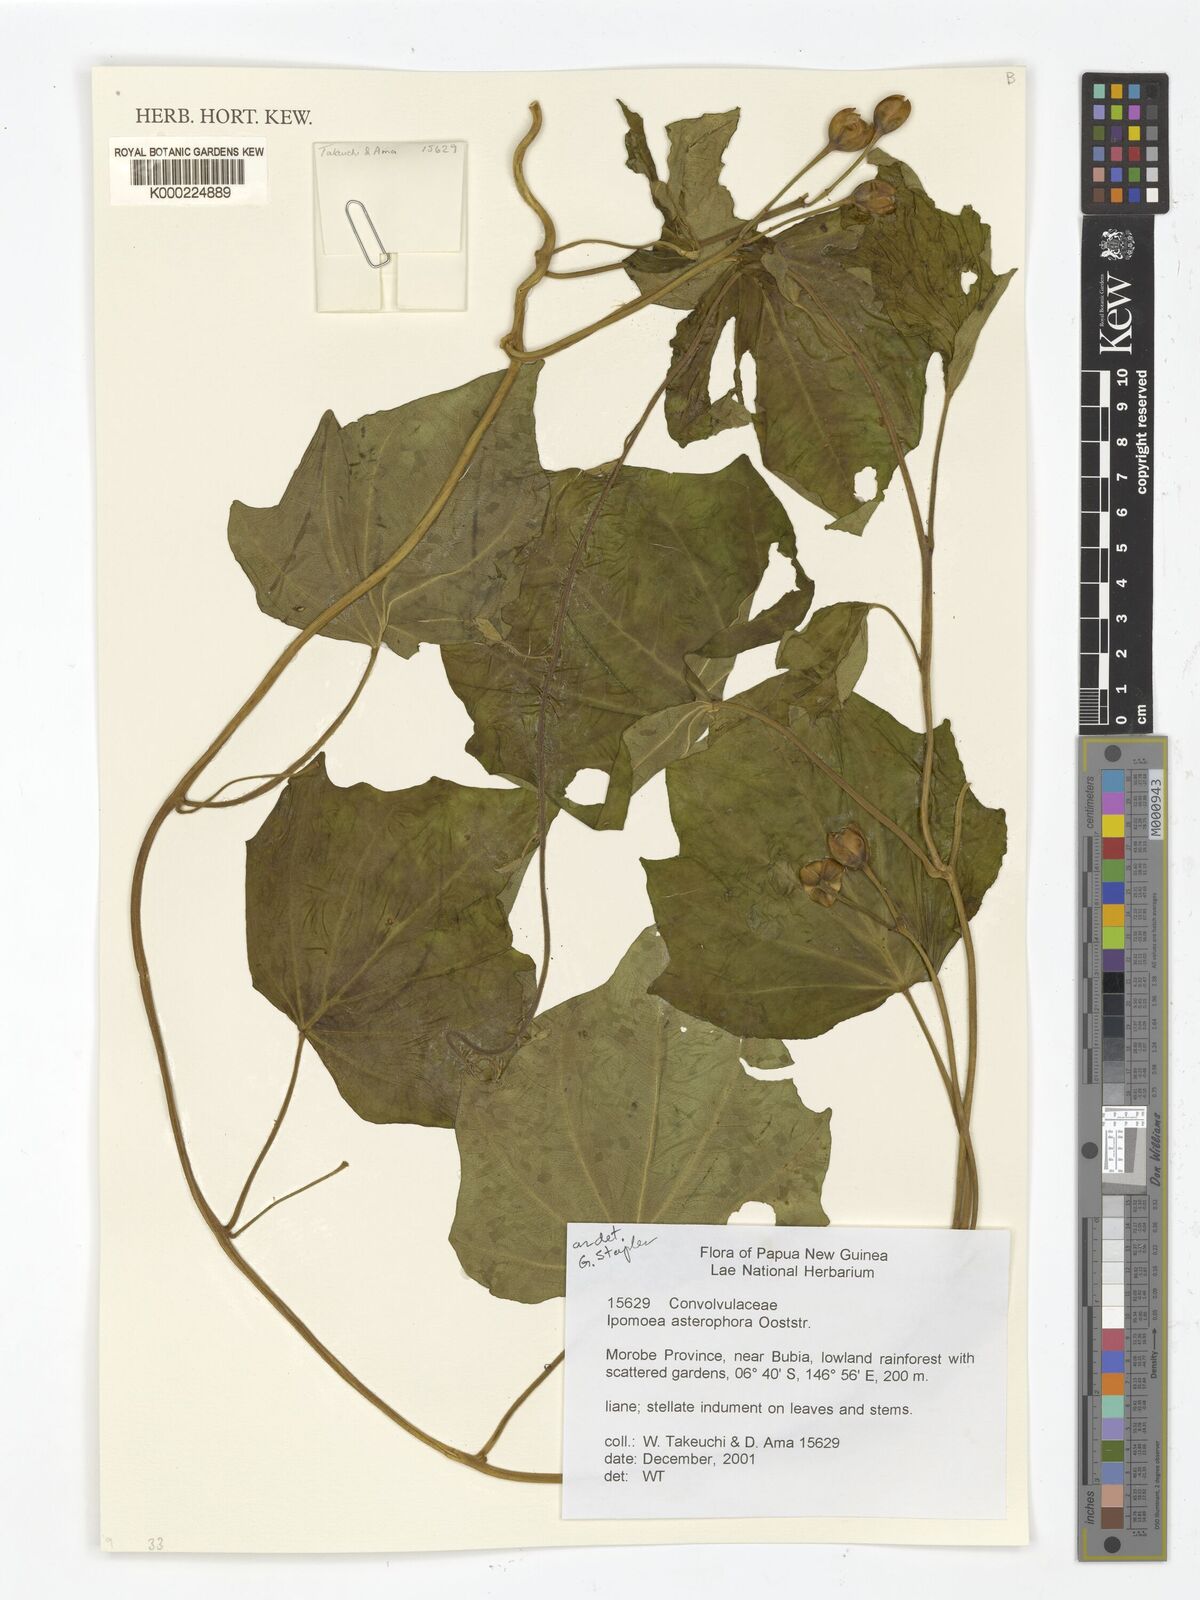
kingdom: Plantae
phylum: Tracheophyta
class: Magnoliopsida
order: Solanales
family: Convolvulaceae
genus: Ipomoea
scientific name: Ipomoea asterophora
